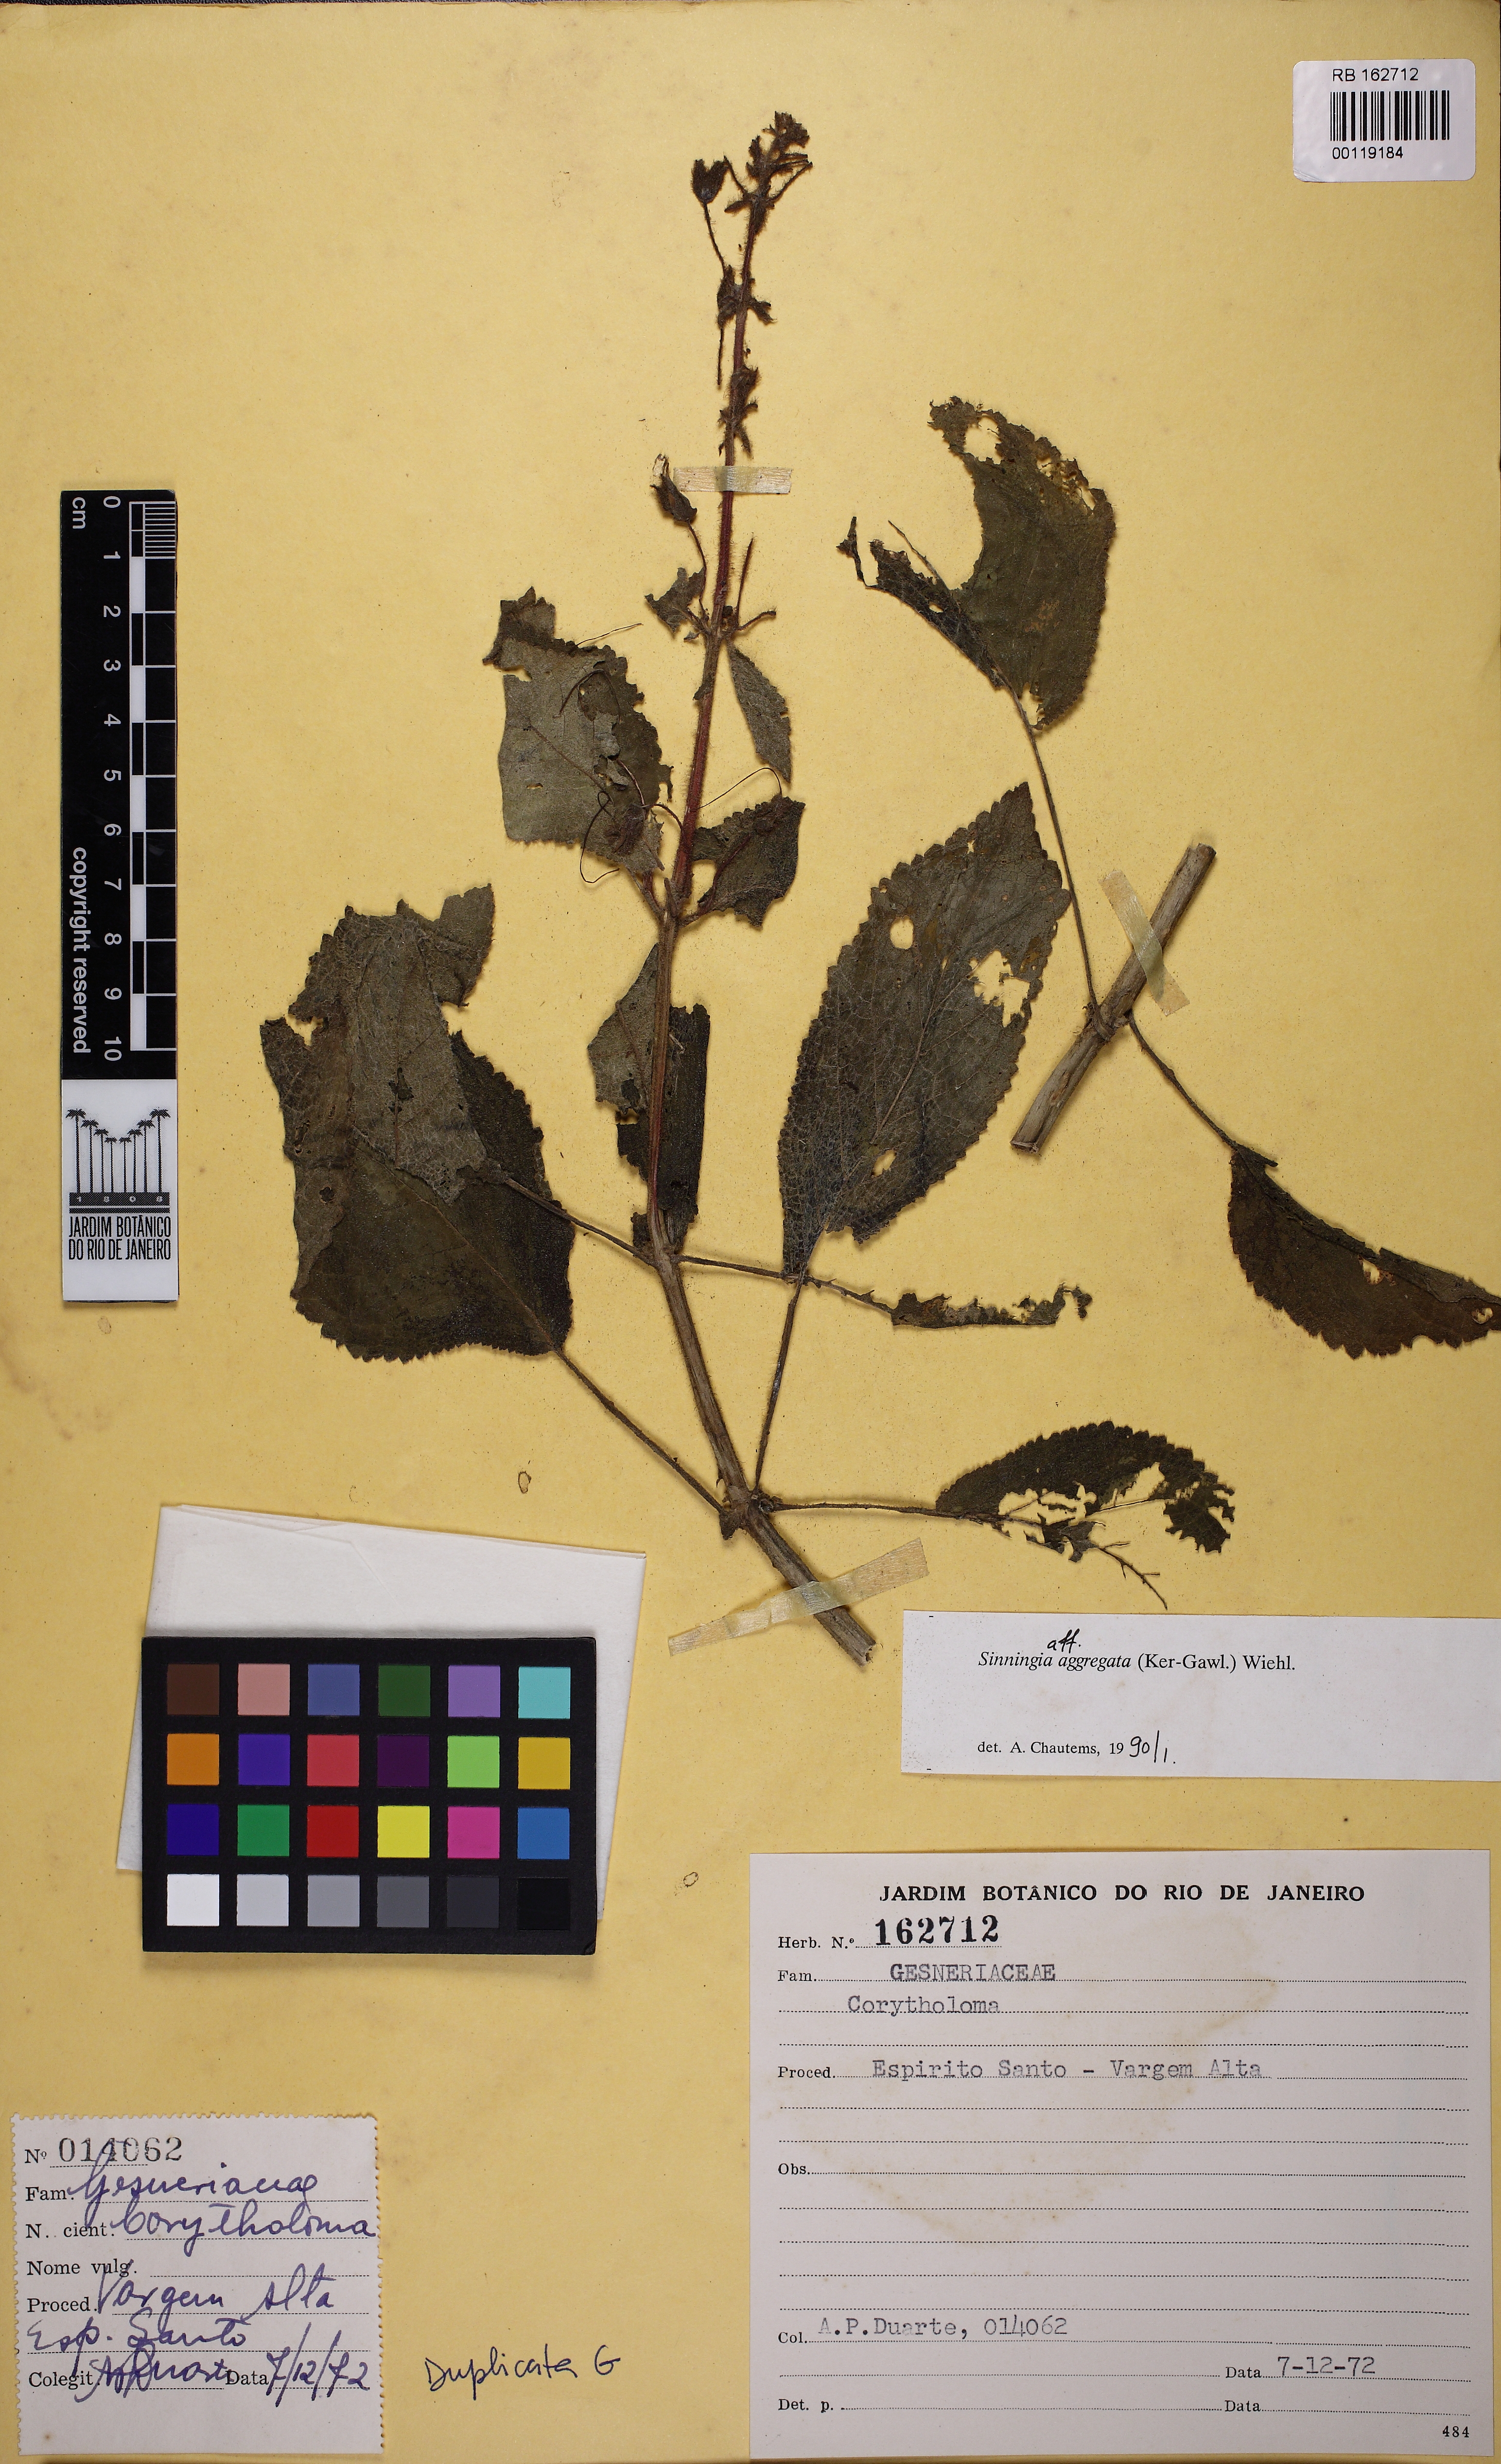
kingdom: Plantae
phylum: Tracheophyta
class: Magnoliopsida
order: Lamiales
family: Gesneriaceae
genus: Sinningia
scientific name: Sinningia aggregata
